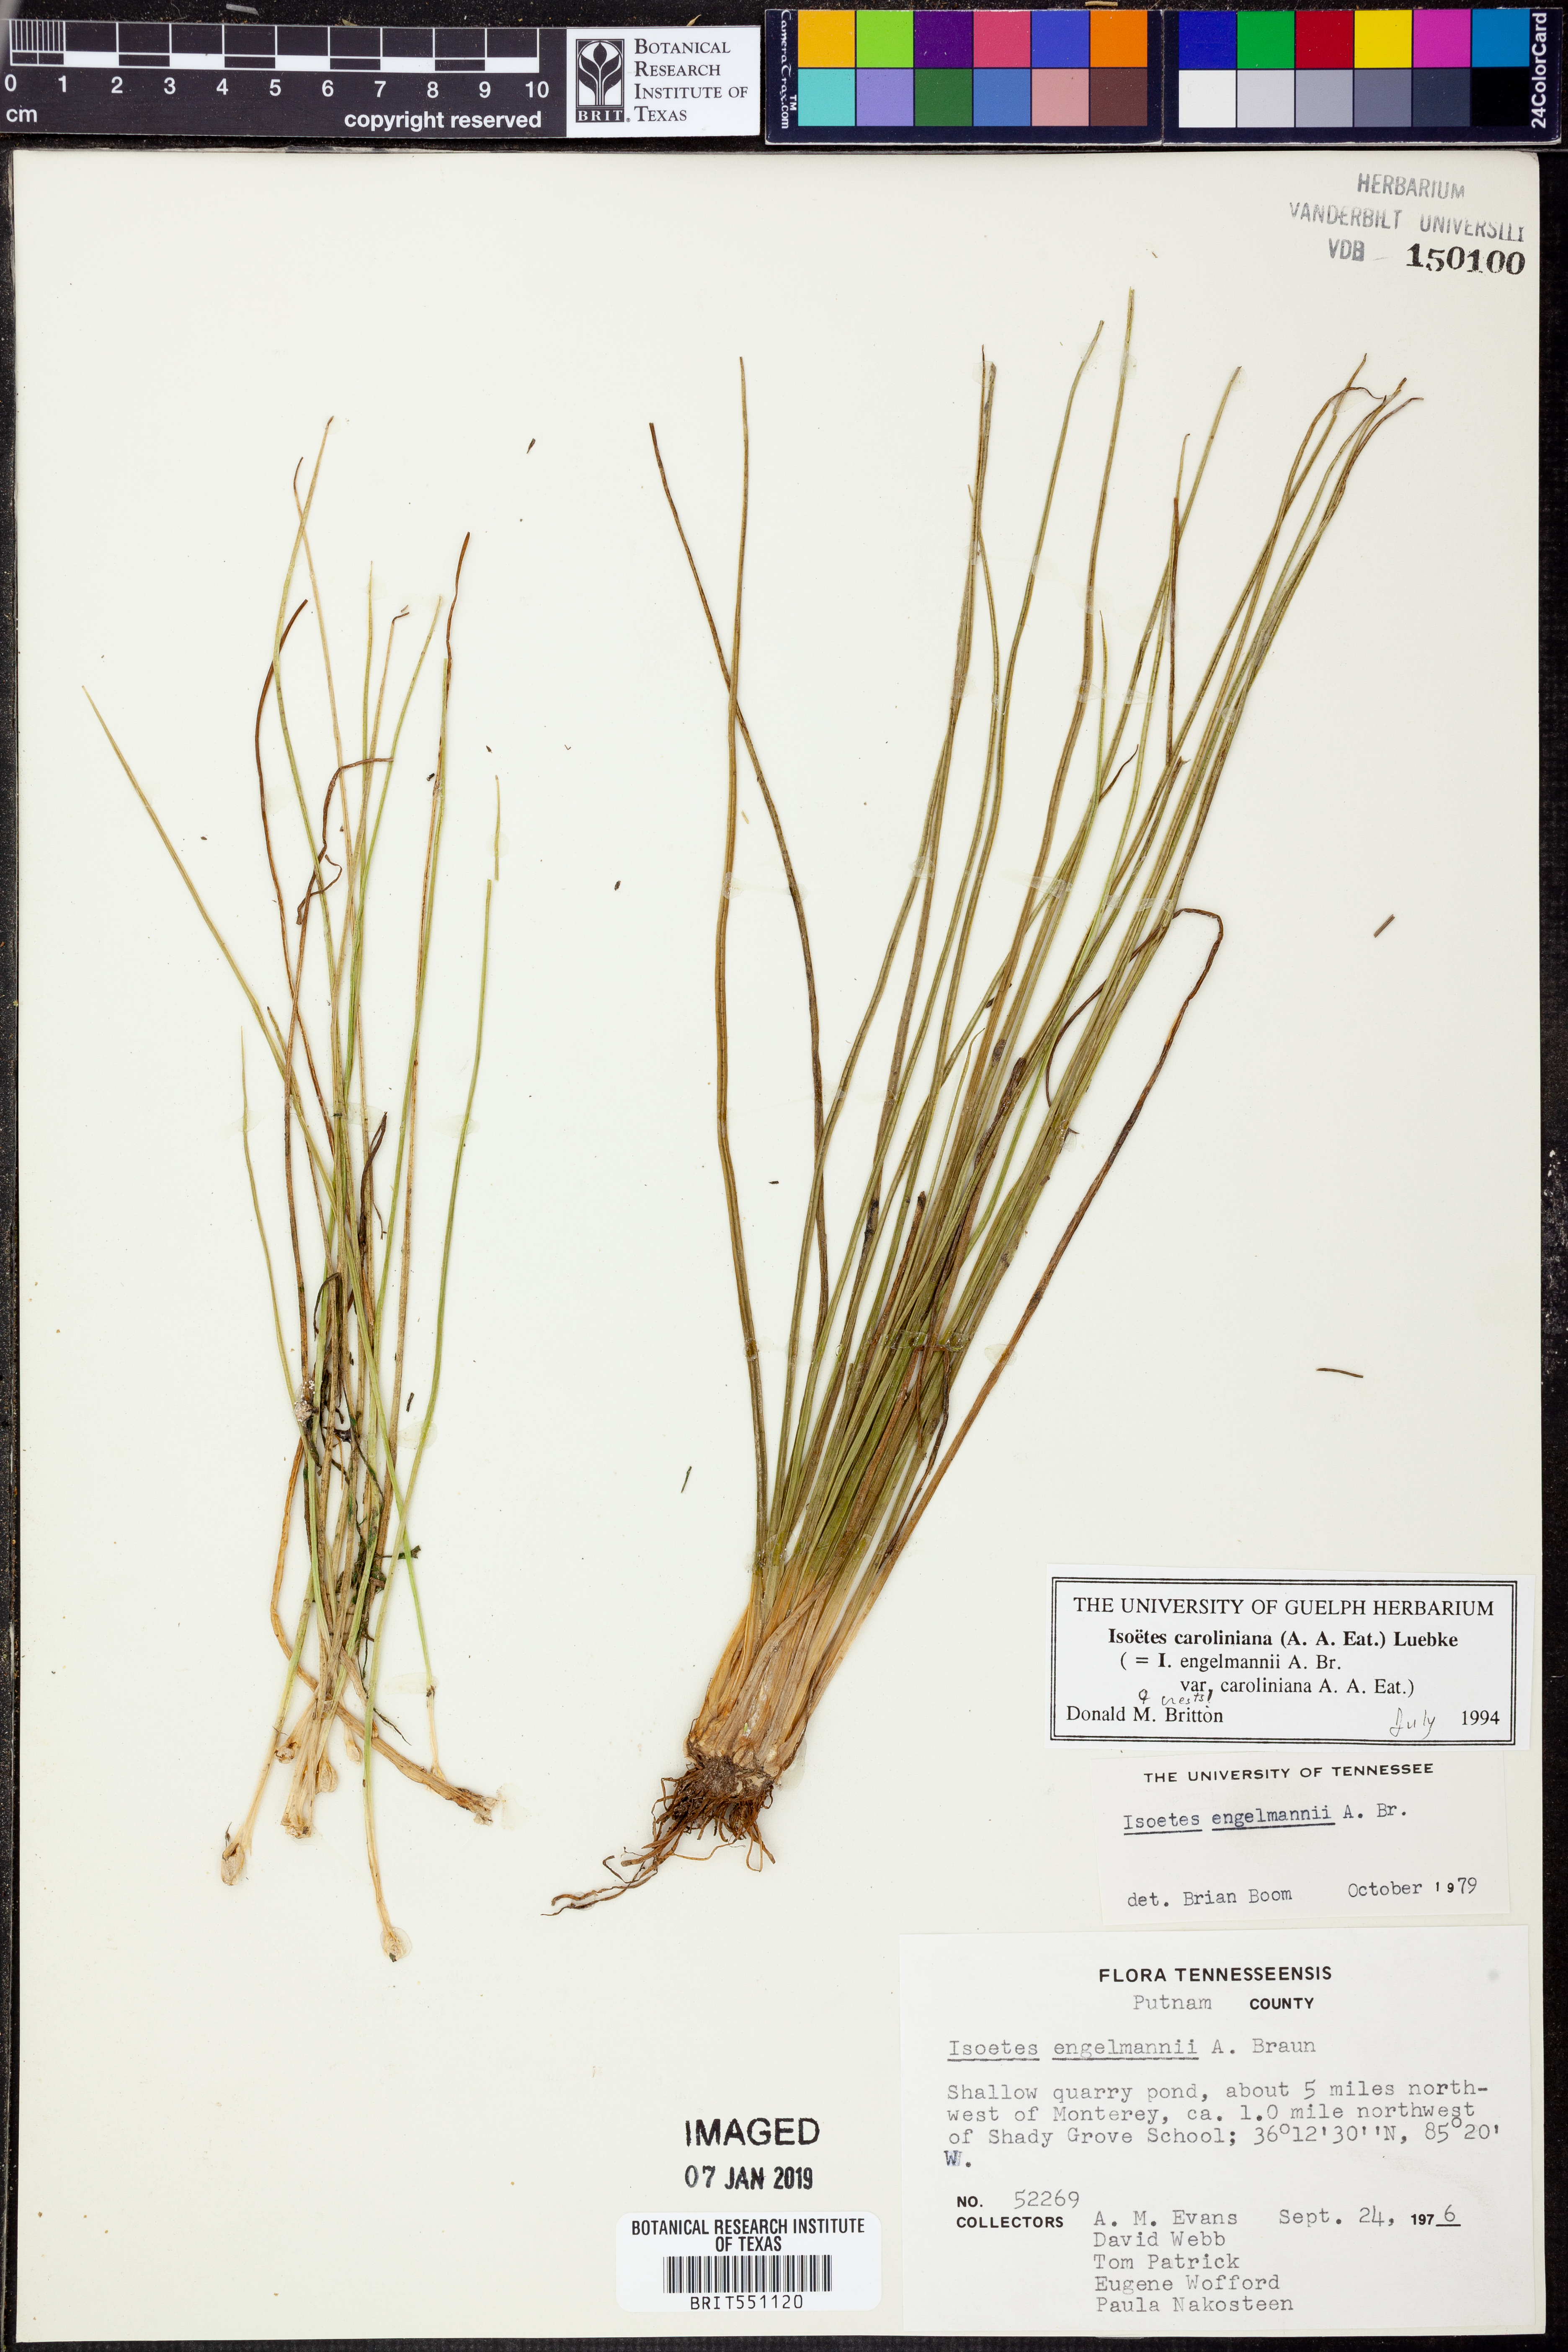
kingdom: Plantae
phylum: Tracheophyta
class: Lycopodiopsida
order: Isoetales
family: Isoetaceae
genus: Isoetes
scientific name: Isoetes caroliniana
